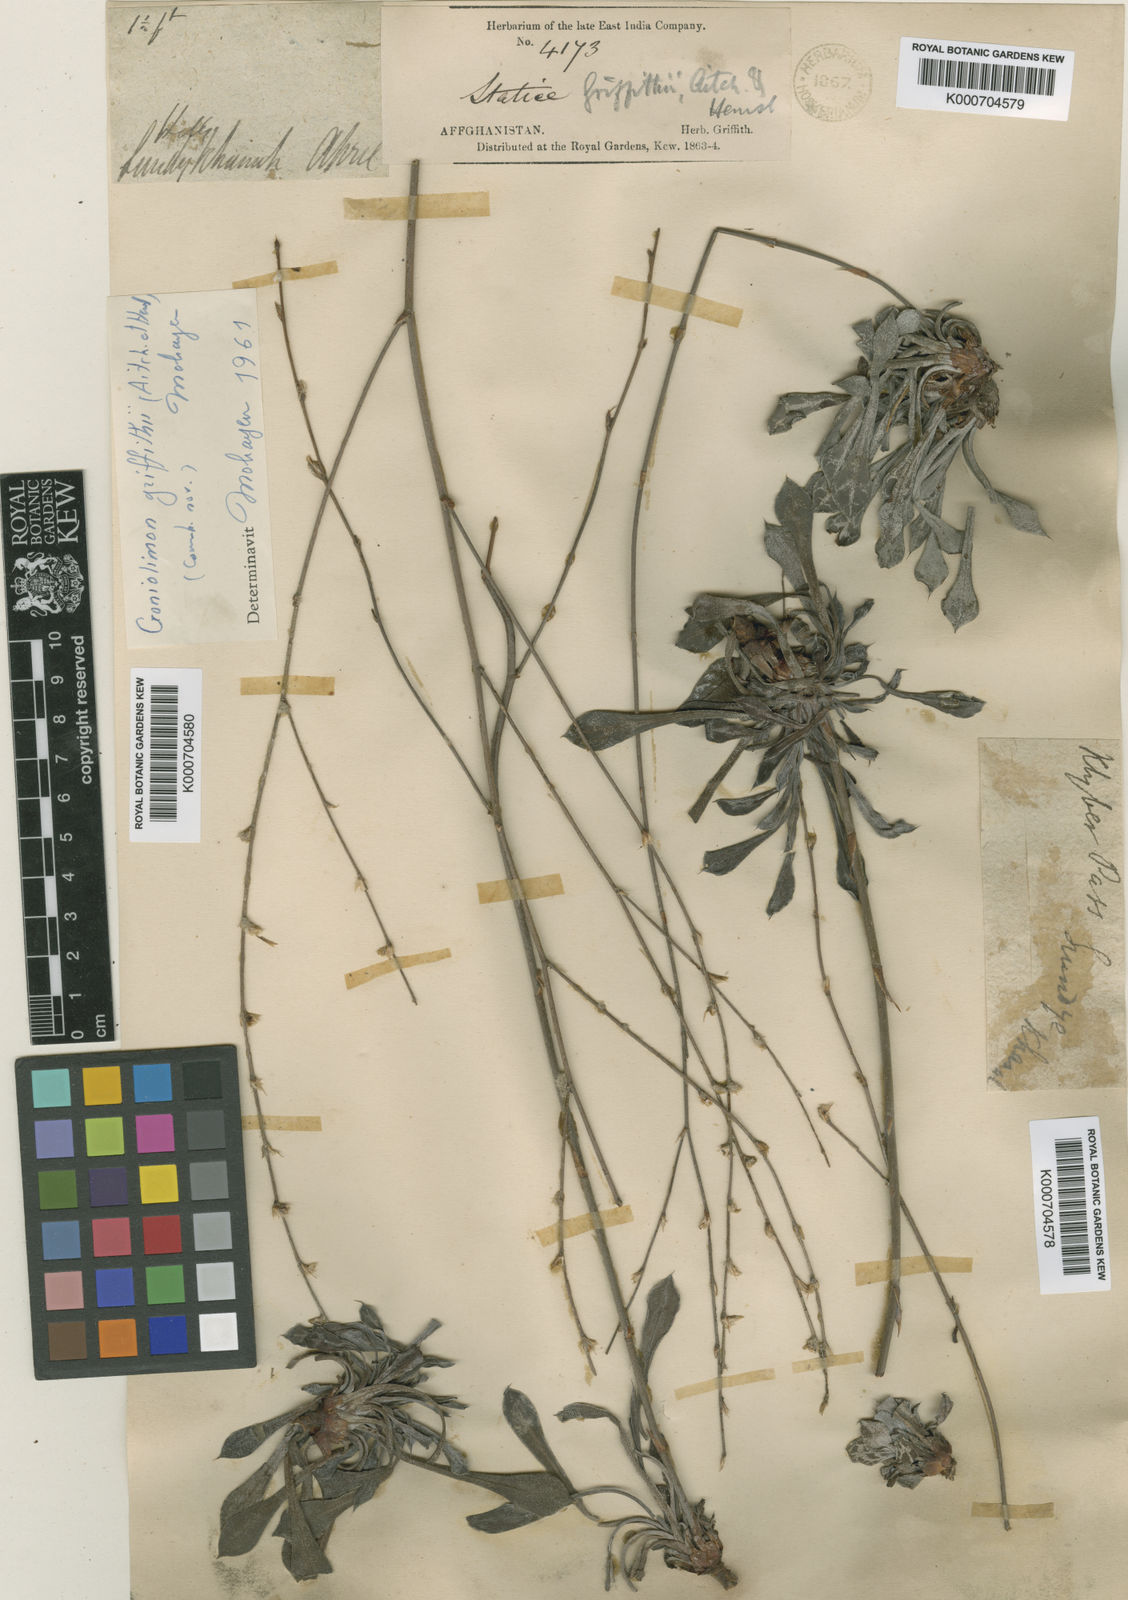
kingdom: Plantae
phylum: Tracheophyta
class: Magnoliopsida
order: Caryophyllales
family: Plumbaginaceae
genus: Dictyolimon
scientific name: Dictyolimon griffithii
